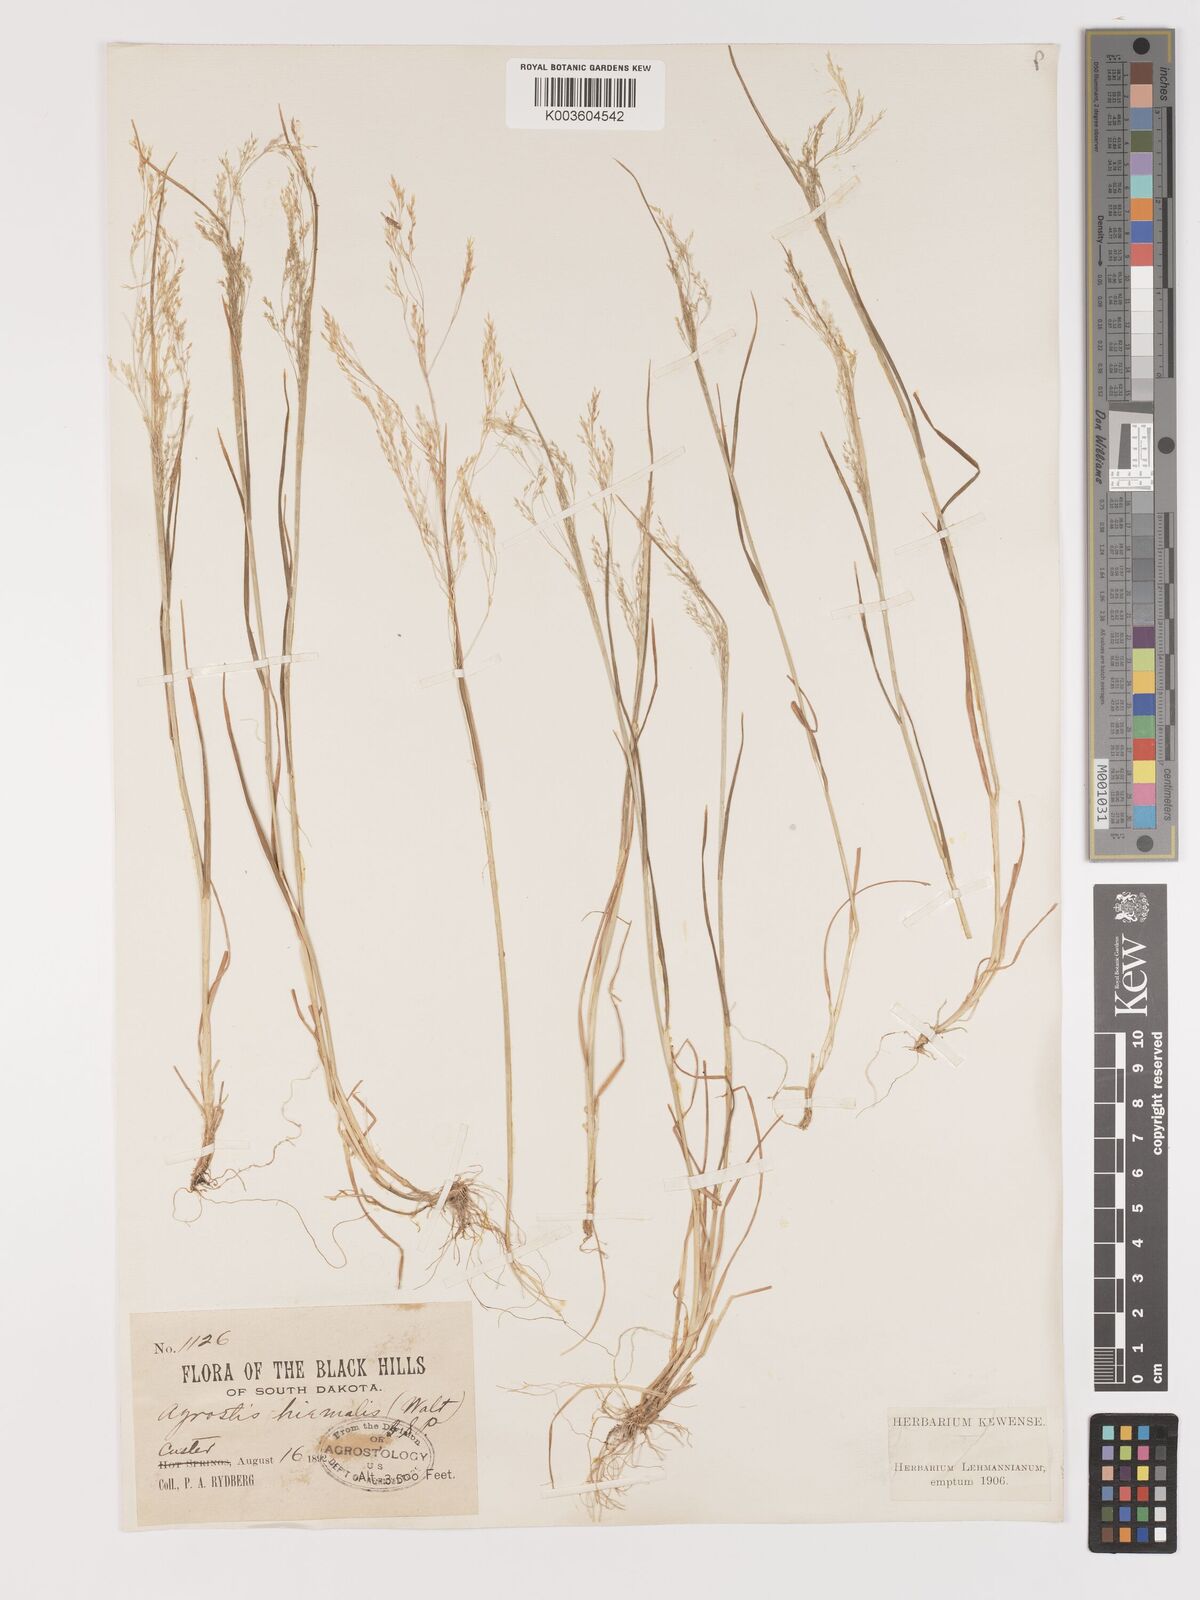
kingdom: Plantae
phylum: Tracheophyta
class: Liliopsida
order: Poales
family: Poaceae
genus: Agrostis
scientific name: Agrostis hyemalis
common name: Small bent
